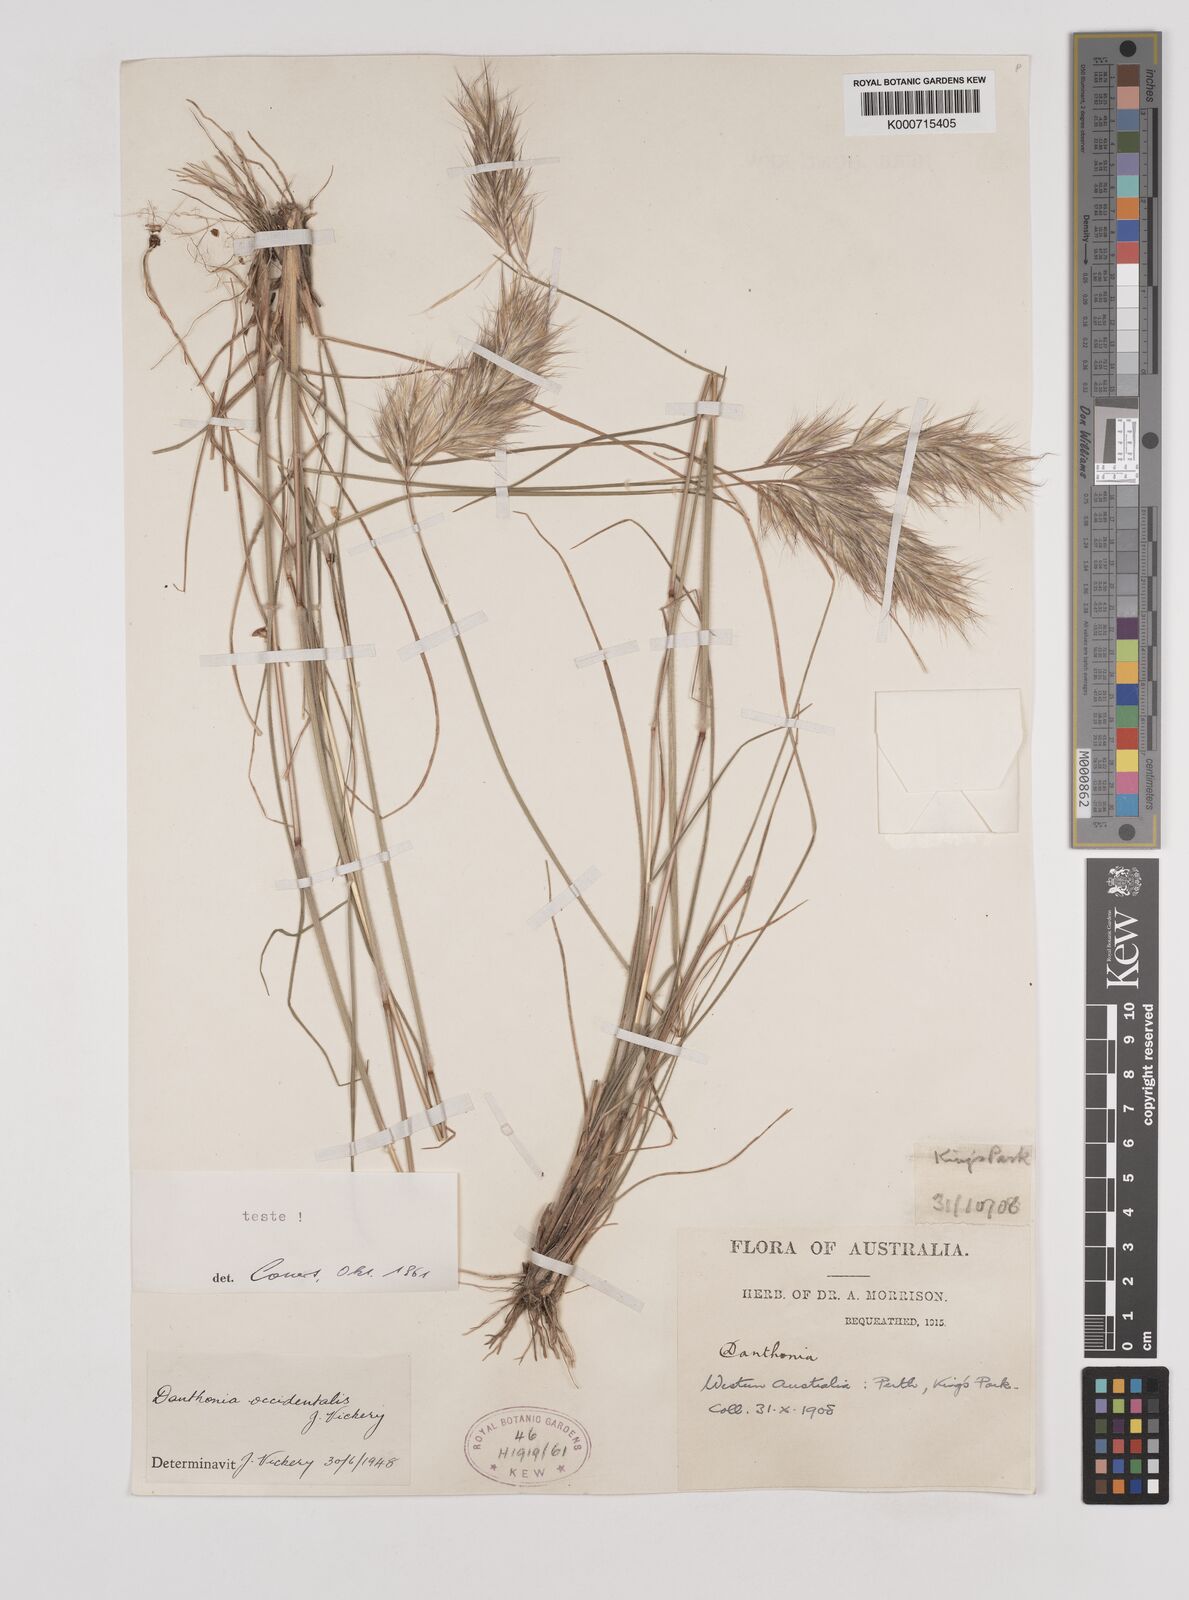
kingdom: Plantae
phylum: Tracheophyta
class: Liliopsida
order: Poales
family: Poaceae
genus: Rytidosperma
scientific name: Rytidosperma occidentale
